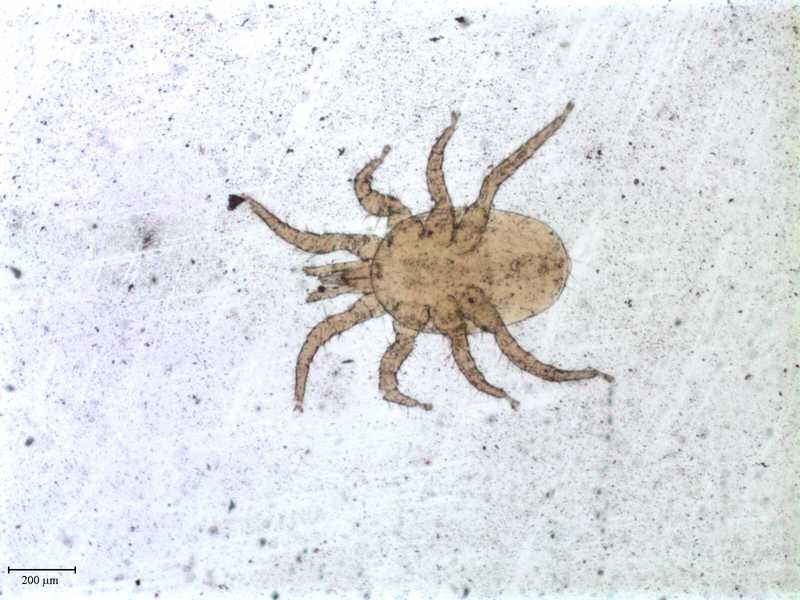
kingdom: Animalia
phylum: Arthropoda
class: Arachnida
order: Mesostigmata
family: Macronyssidae
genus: Macronyssus
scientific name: Macronyssus ellipticus
